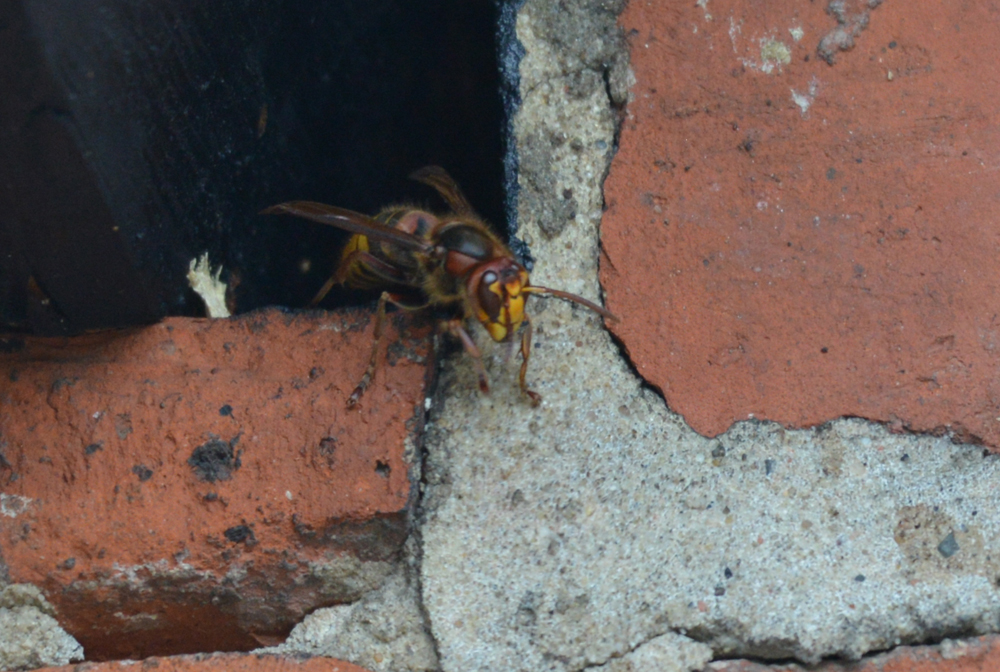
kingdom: Animalia
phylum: Arthropoda
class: Insecta
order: Hymenoptera
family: Vespidae
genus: Vespa
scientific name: Vespa crabro
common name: Hornet
